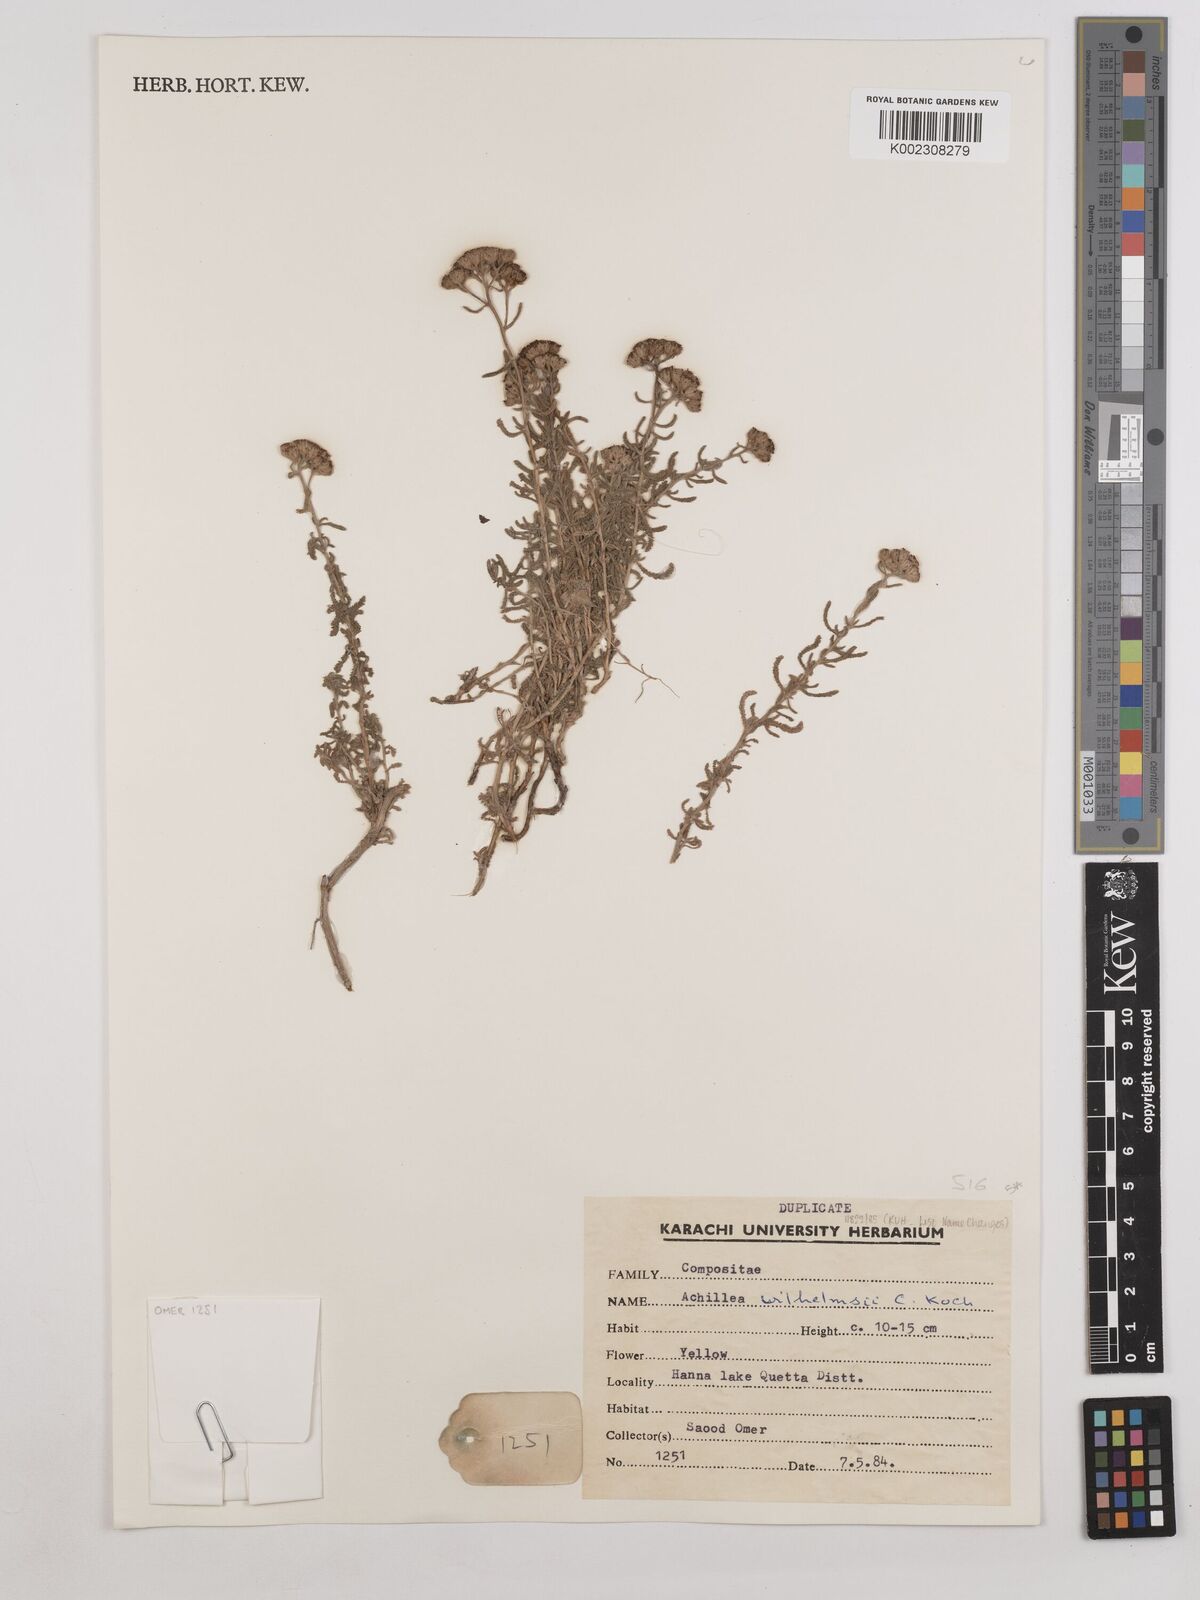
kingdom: Plantae
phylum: Tracheophyta
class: Magnoliopsida
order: Asterales
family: Asteraceae
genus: Achillea
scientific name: Achillea
